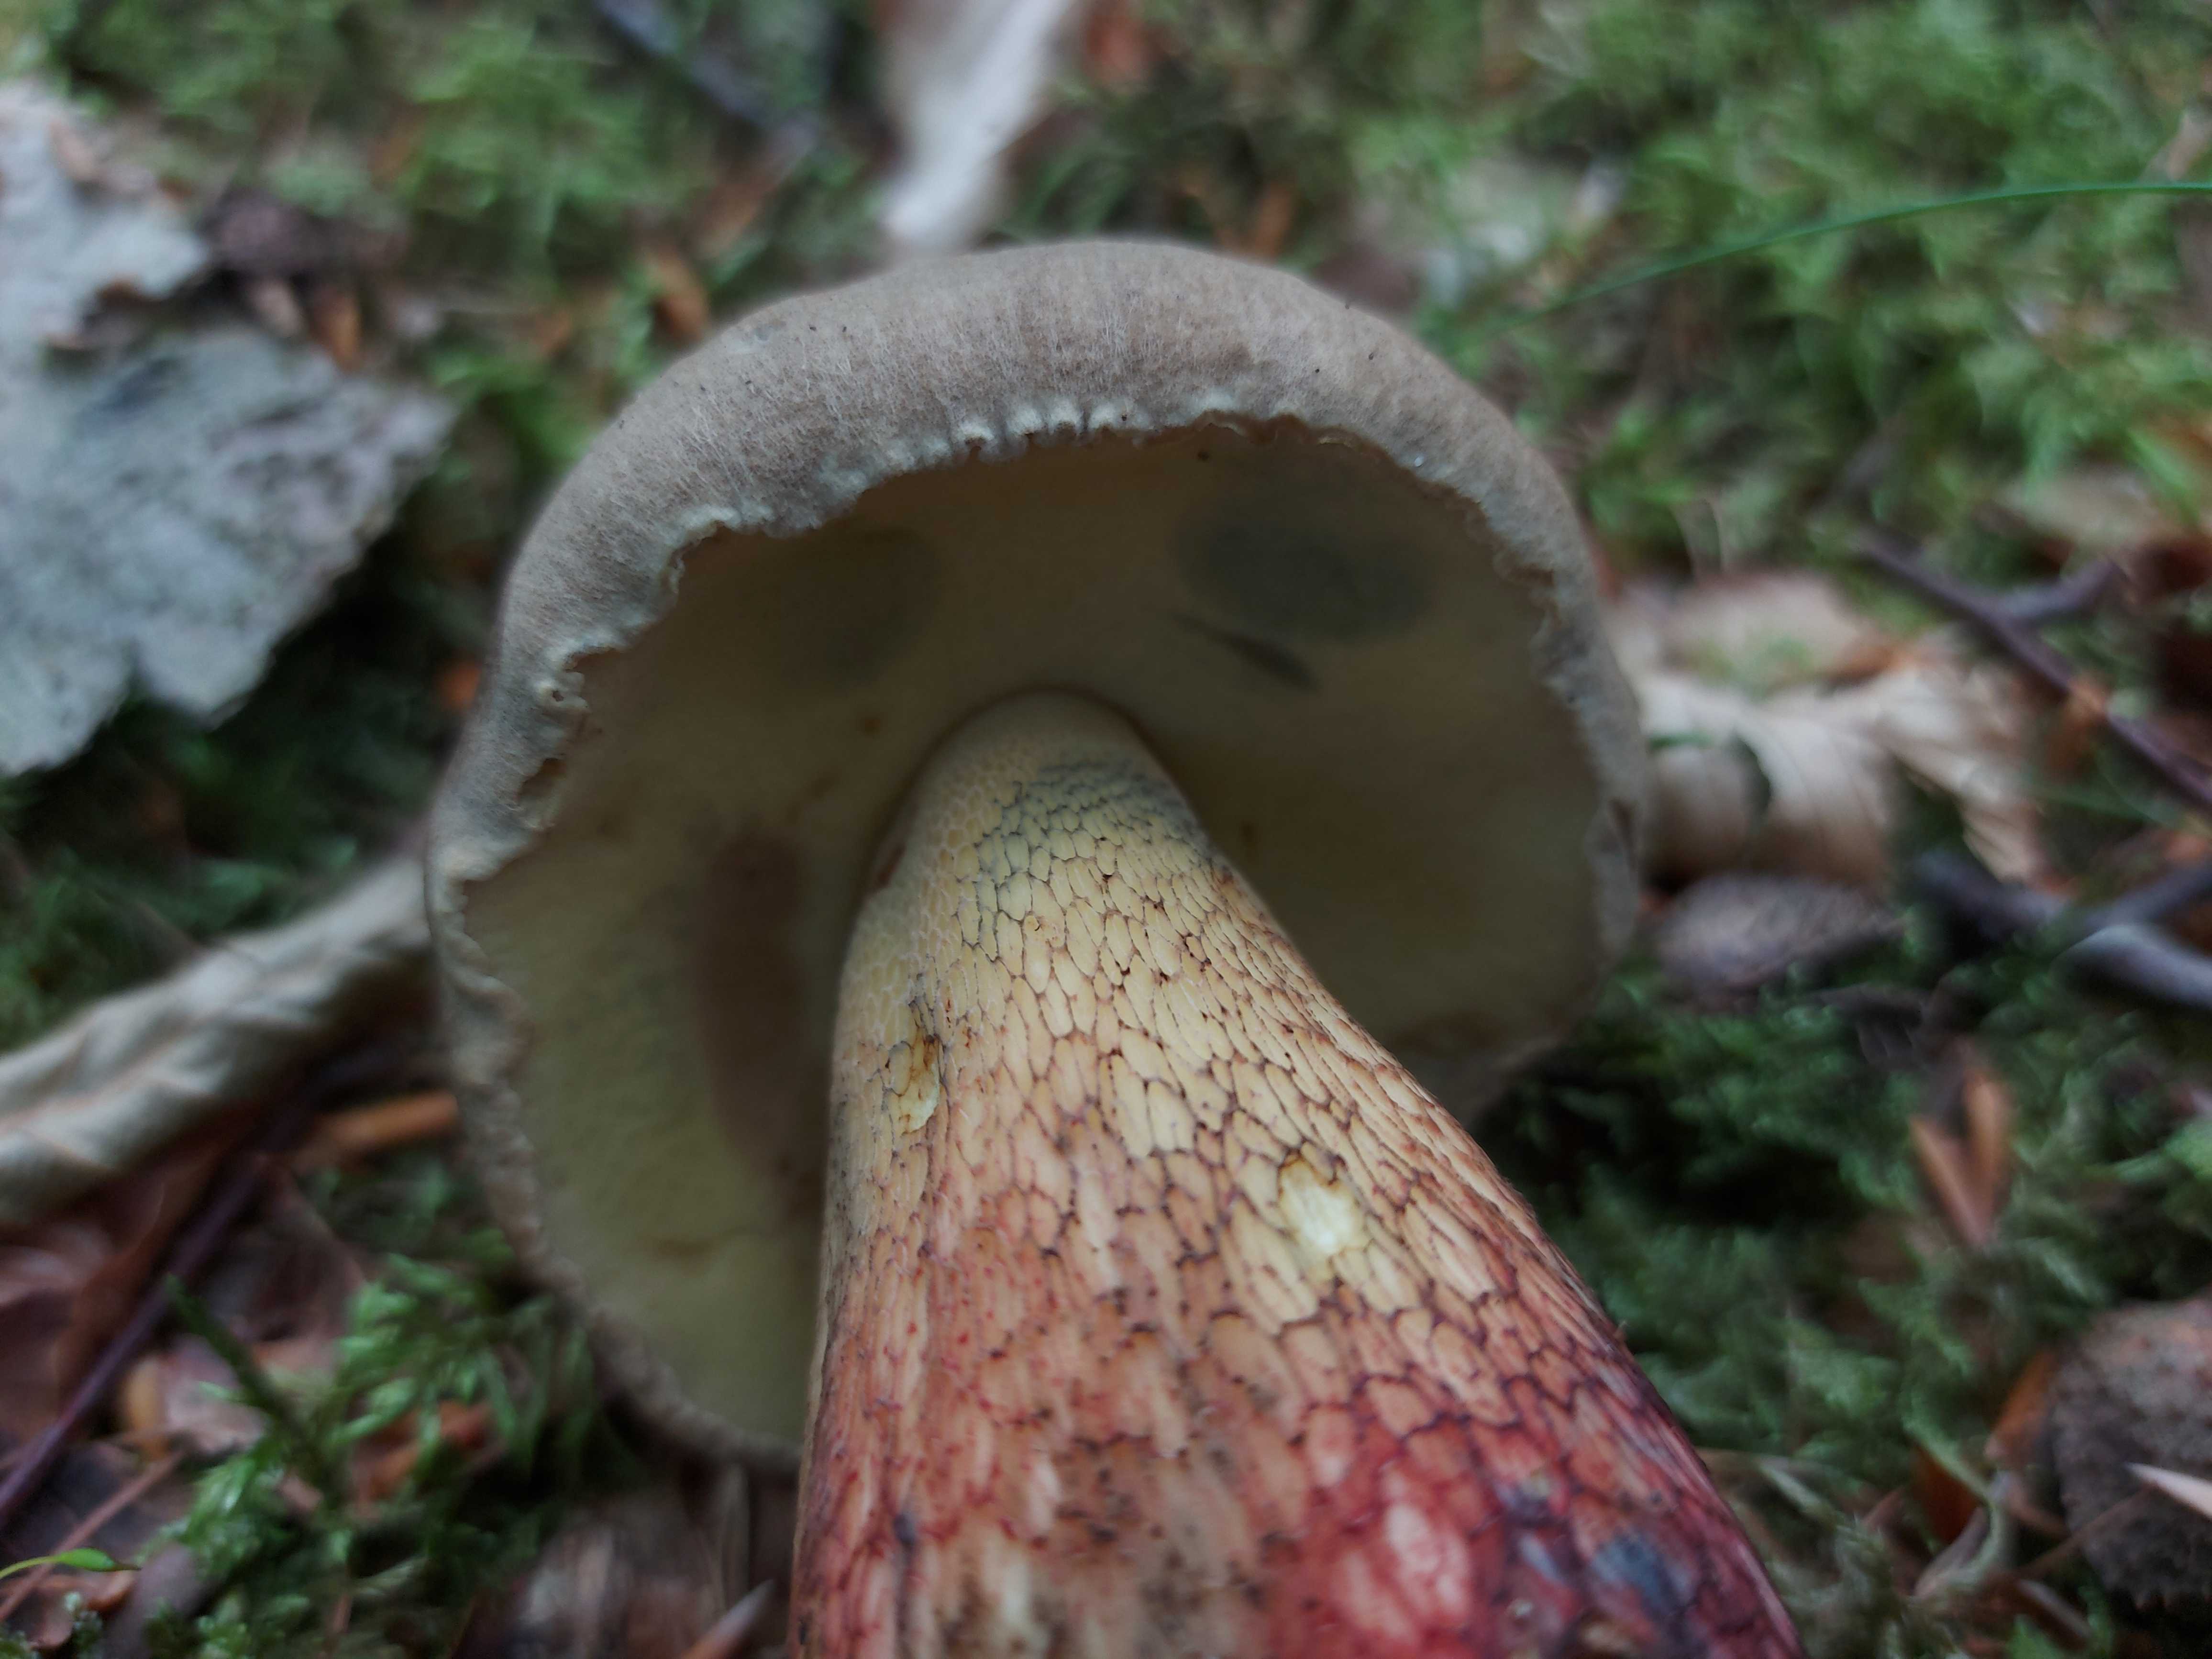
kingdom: Fungi
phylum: Basidiomycota
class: Agaricomycetes
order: Boletales
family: Boletaceae
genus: Caloboletus
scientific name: Caloboletus calopus
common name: skønfodet rørhat
